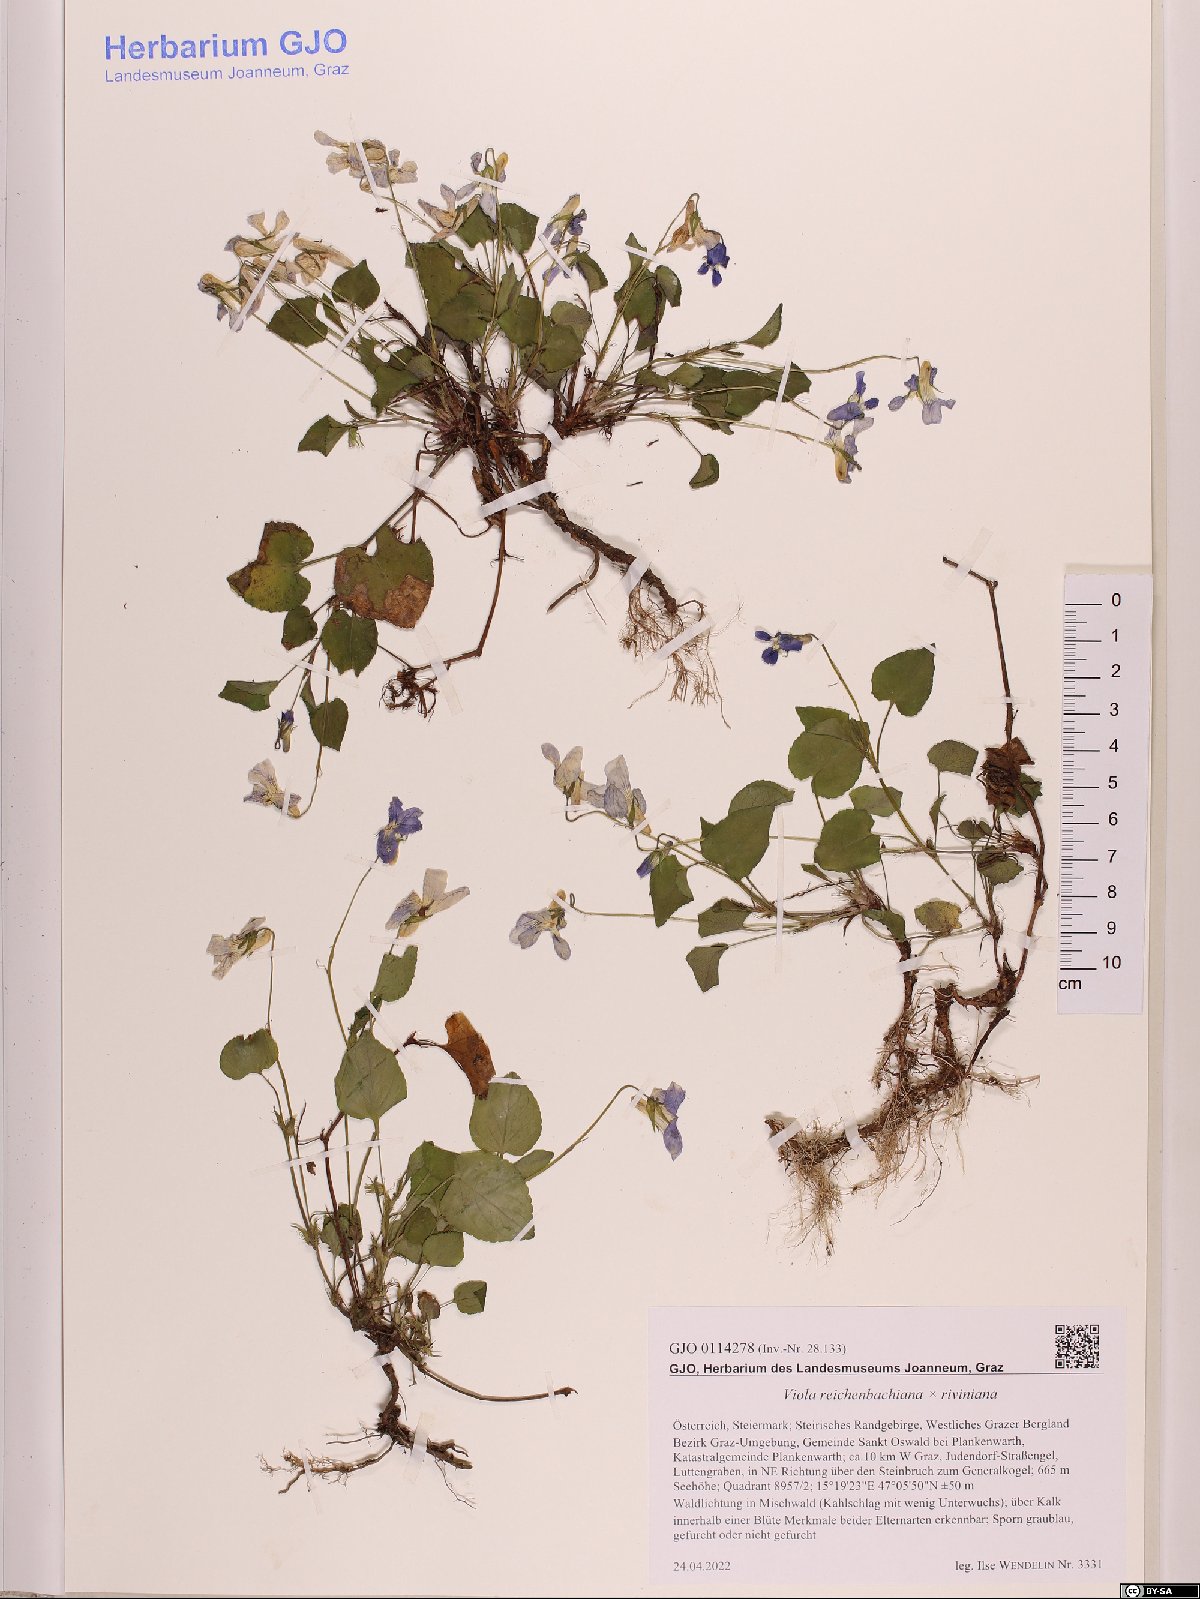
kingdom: Plantae
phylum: Tracheophyta
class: Magnoliopsida
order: Malpighiales
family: Violaceae
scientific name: Violaceae
